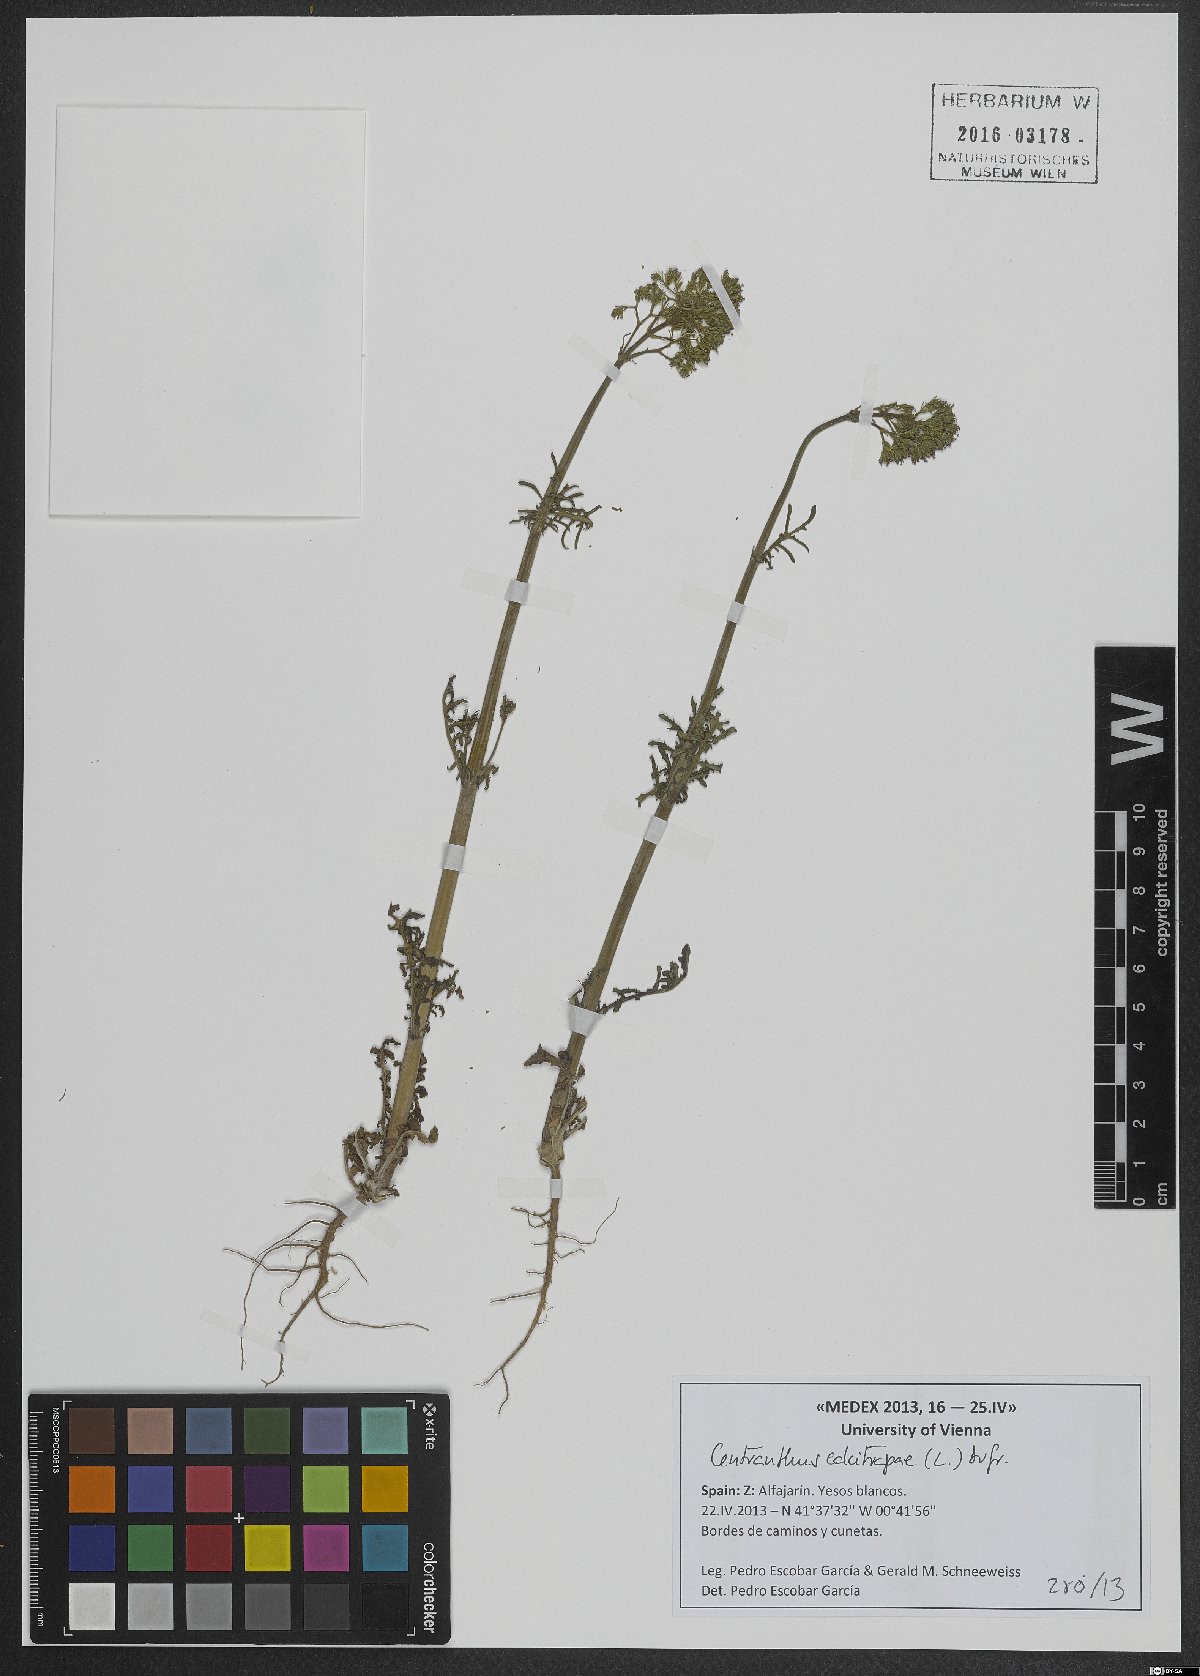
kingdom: Plantae
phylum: Tracheophyta
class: Magnoliopsida
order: Dipsacales
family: Caprifoliaceae
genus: Centranthus
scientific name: Centranthus calcitrapae
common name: Annual valerian
